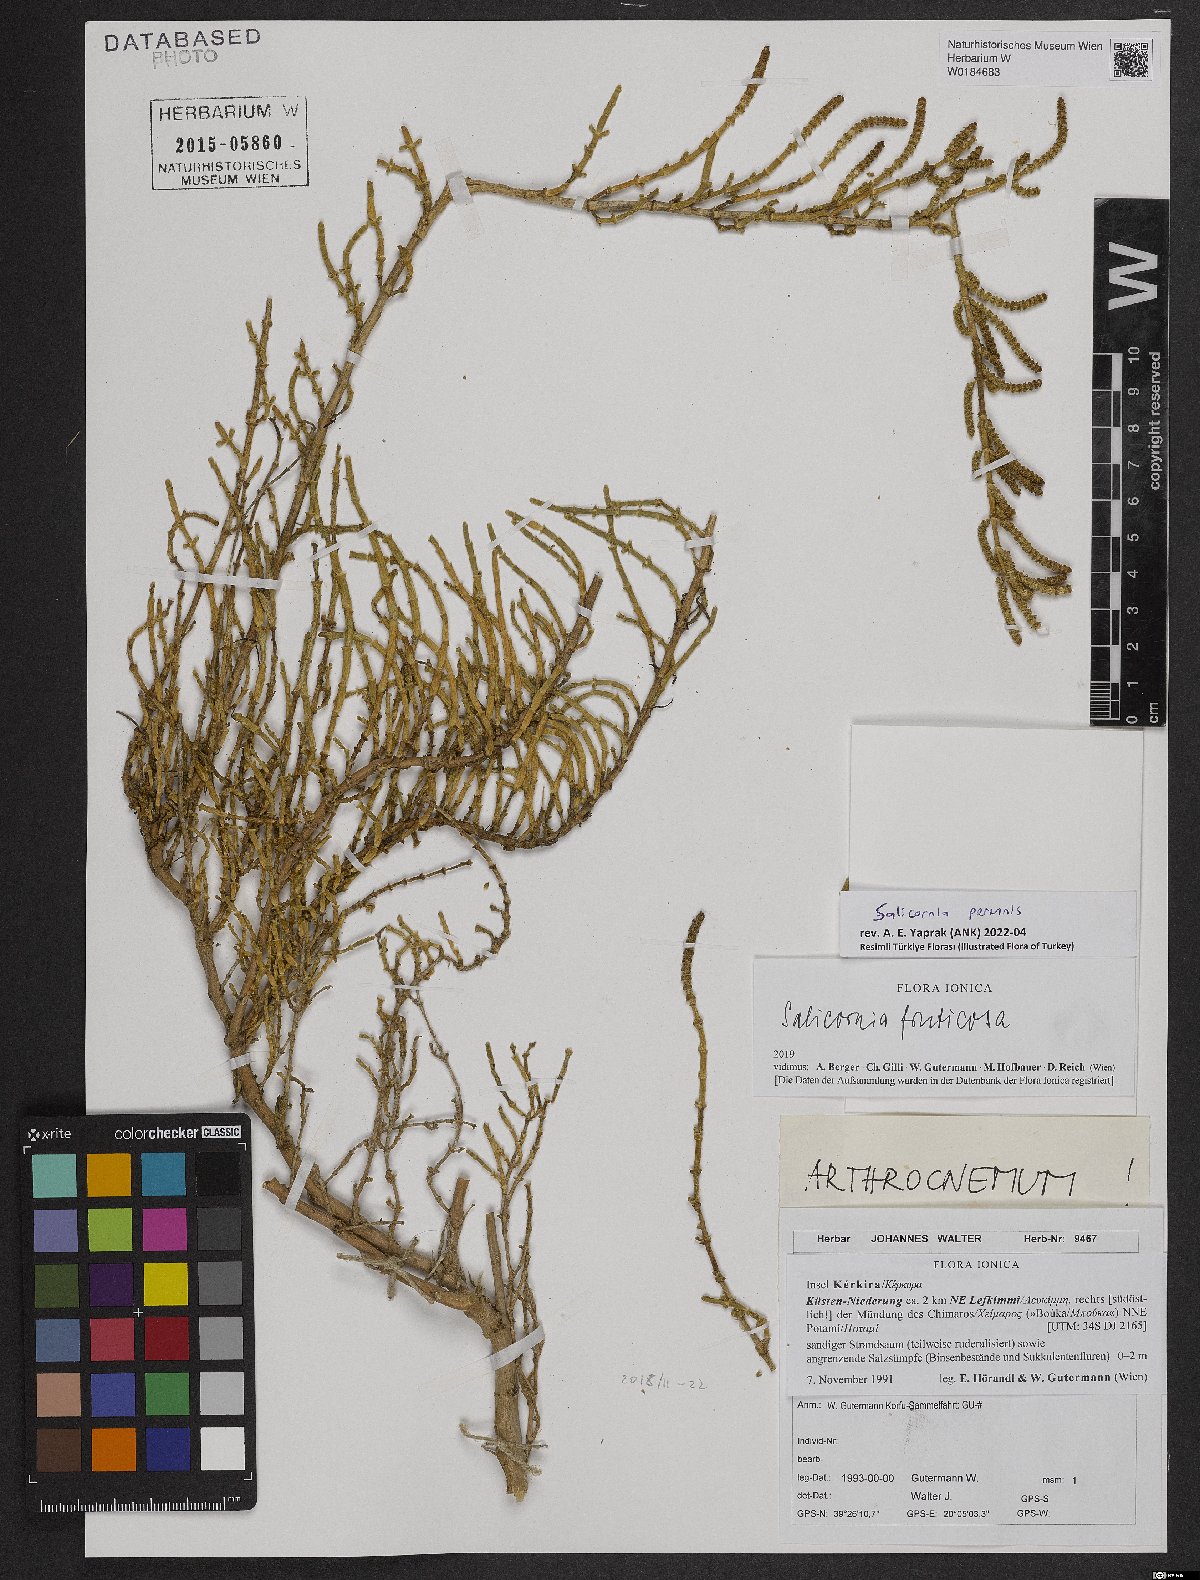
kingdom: Plantae
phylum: Tracheophyta
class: Magnoliopsida
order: Caryophyllales
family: Amaranthaceae
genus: Salicornia
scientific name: Salicornia perennis
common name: Chicken claws
